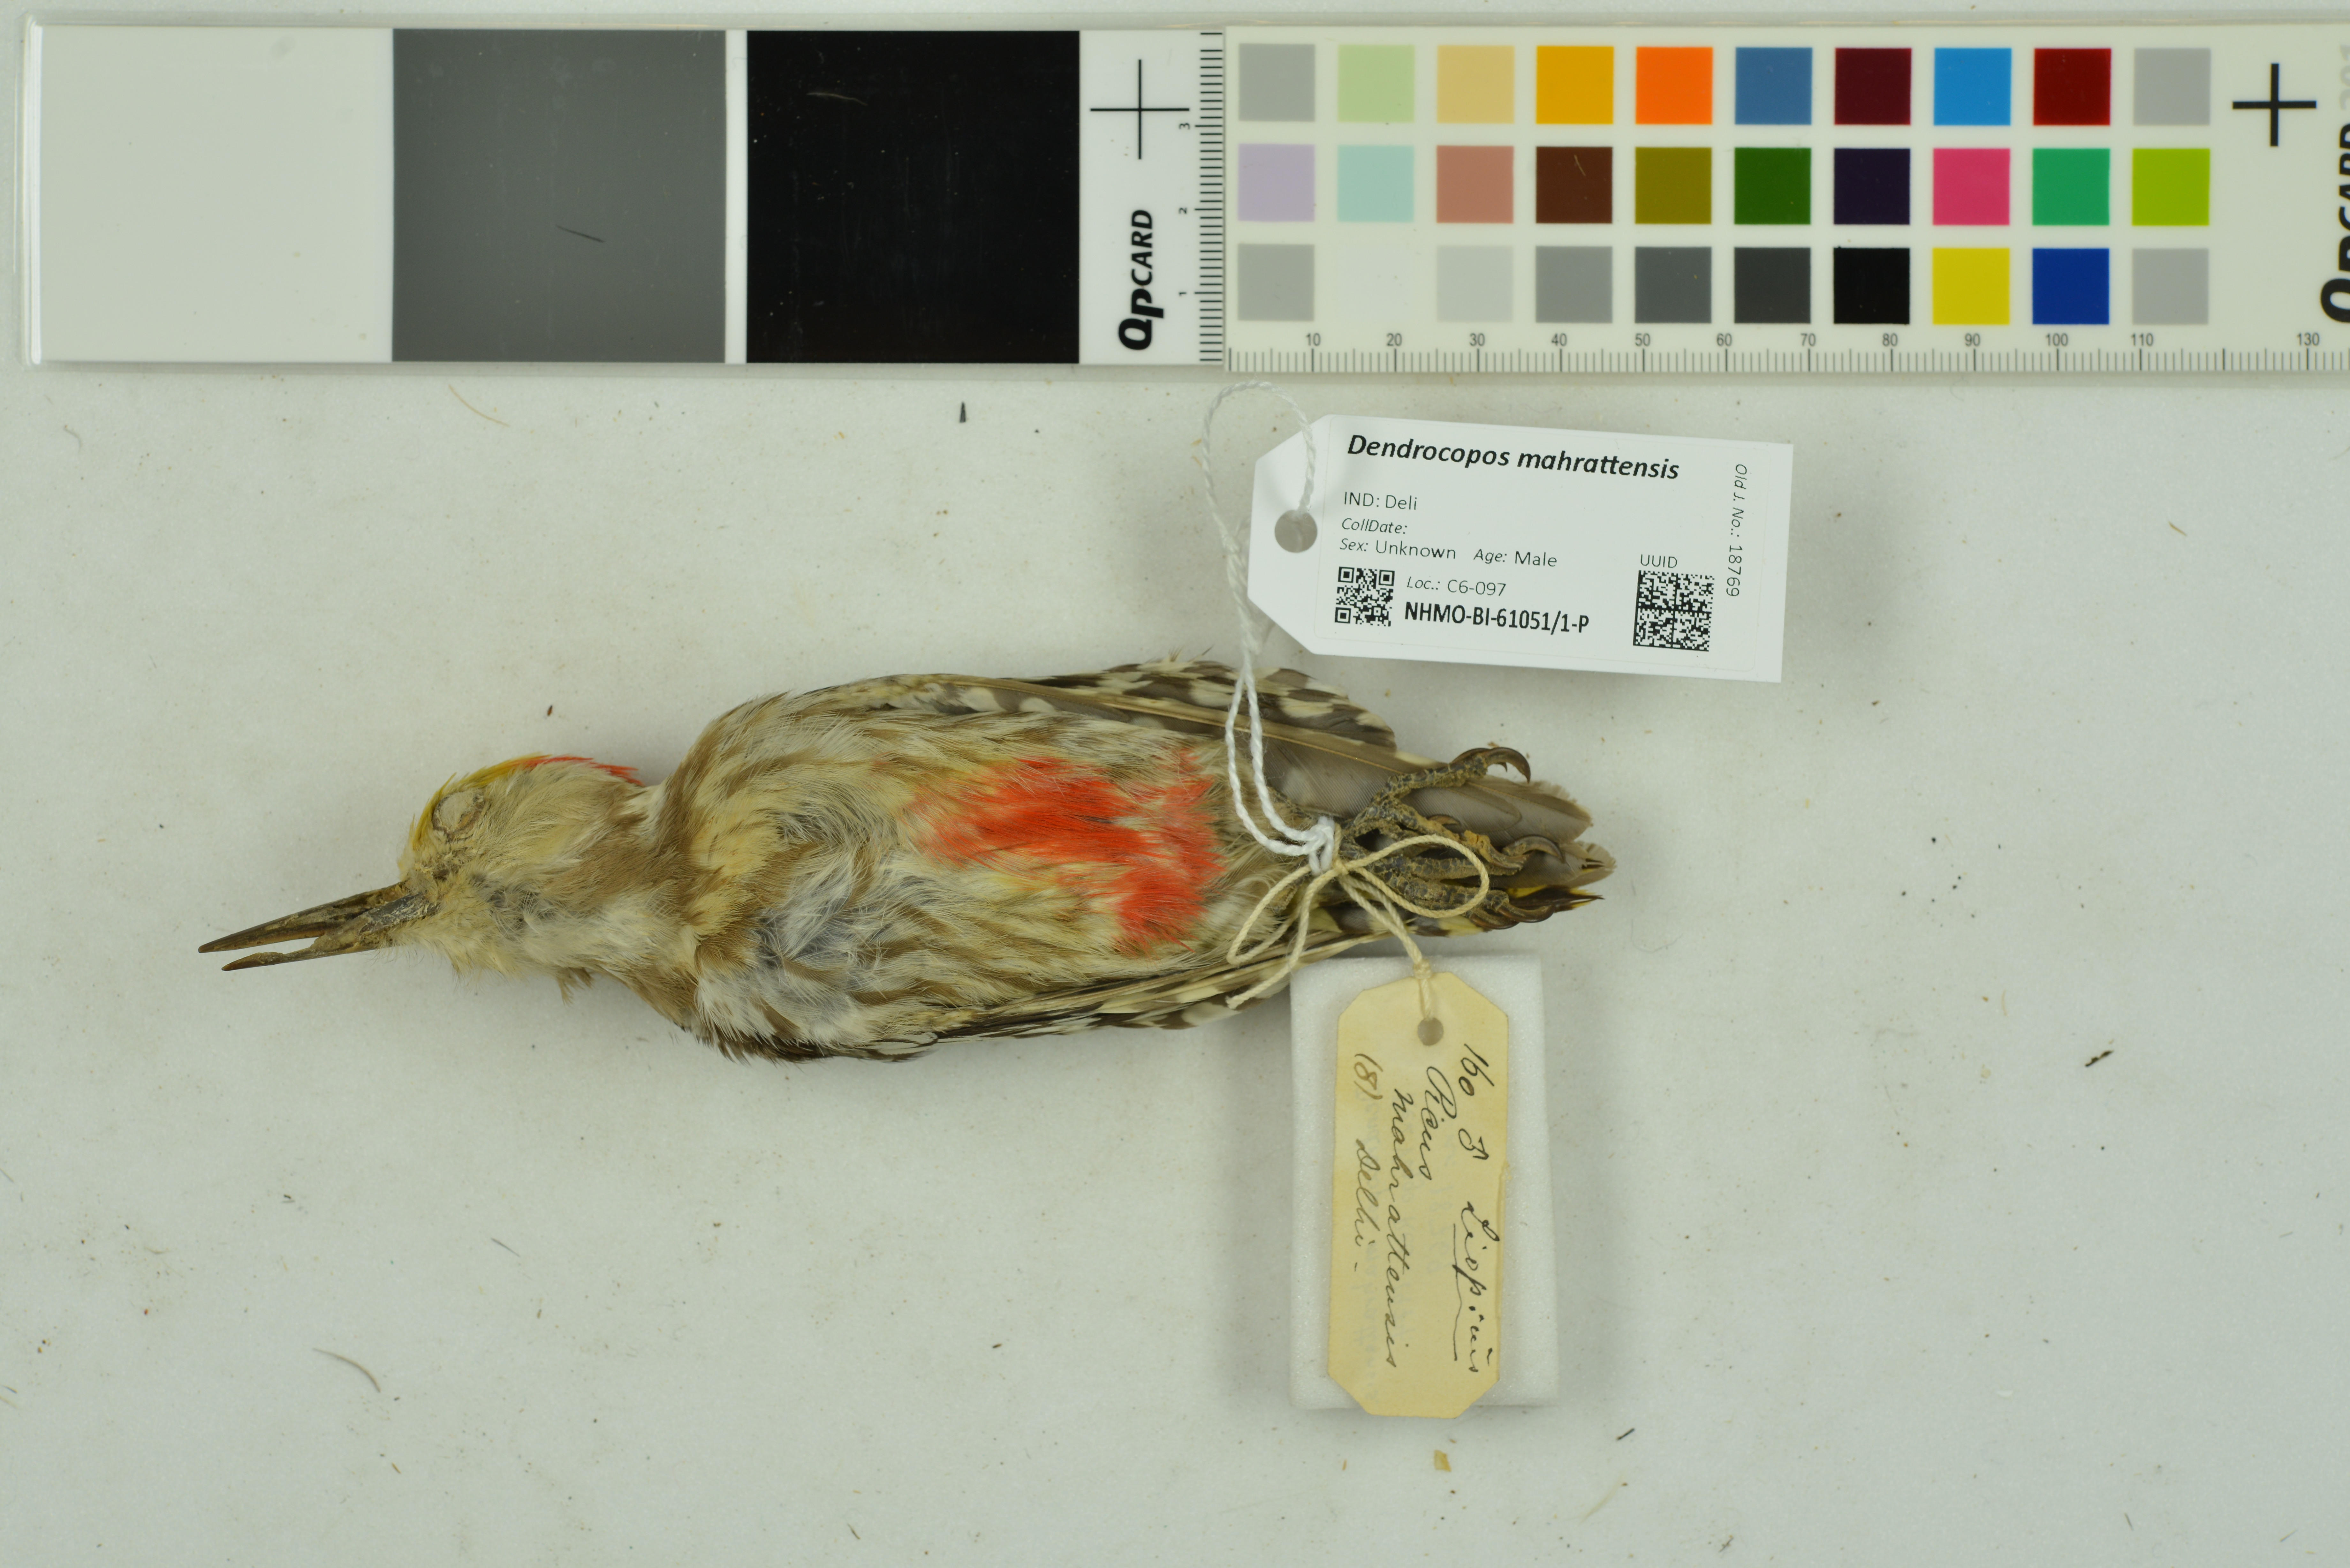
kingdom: Animalia
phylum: Chordata
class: Aves
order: Piciformes
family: Picidae
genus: Leiopicus
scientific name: Leiopicus mahrattensis
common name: Yellow-crowned woodpecker
